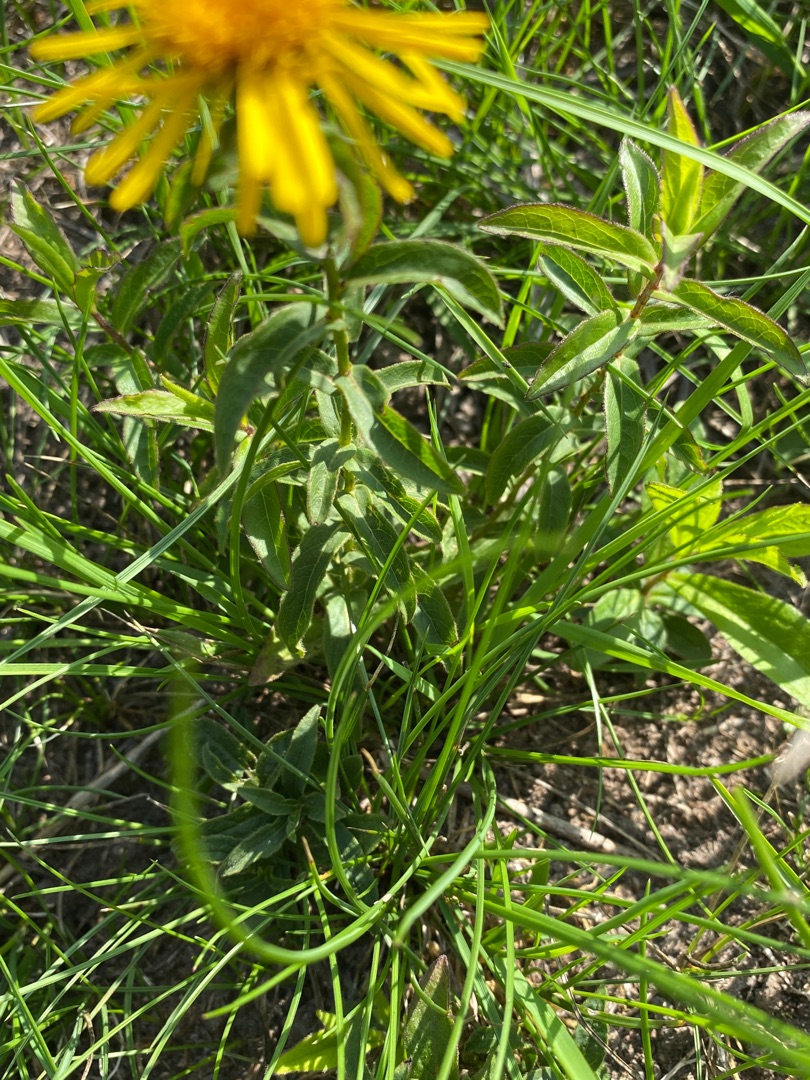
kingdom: Plantae
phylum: Tracheophyta
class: Magnoliopsida
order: Asterales
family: Asteraceae
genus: Pentanema
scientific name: Pentanema salicinum
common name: Pile-alant
